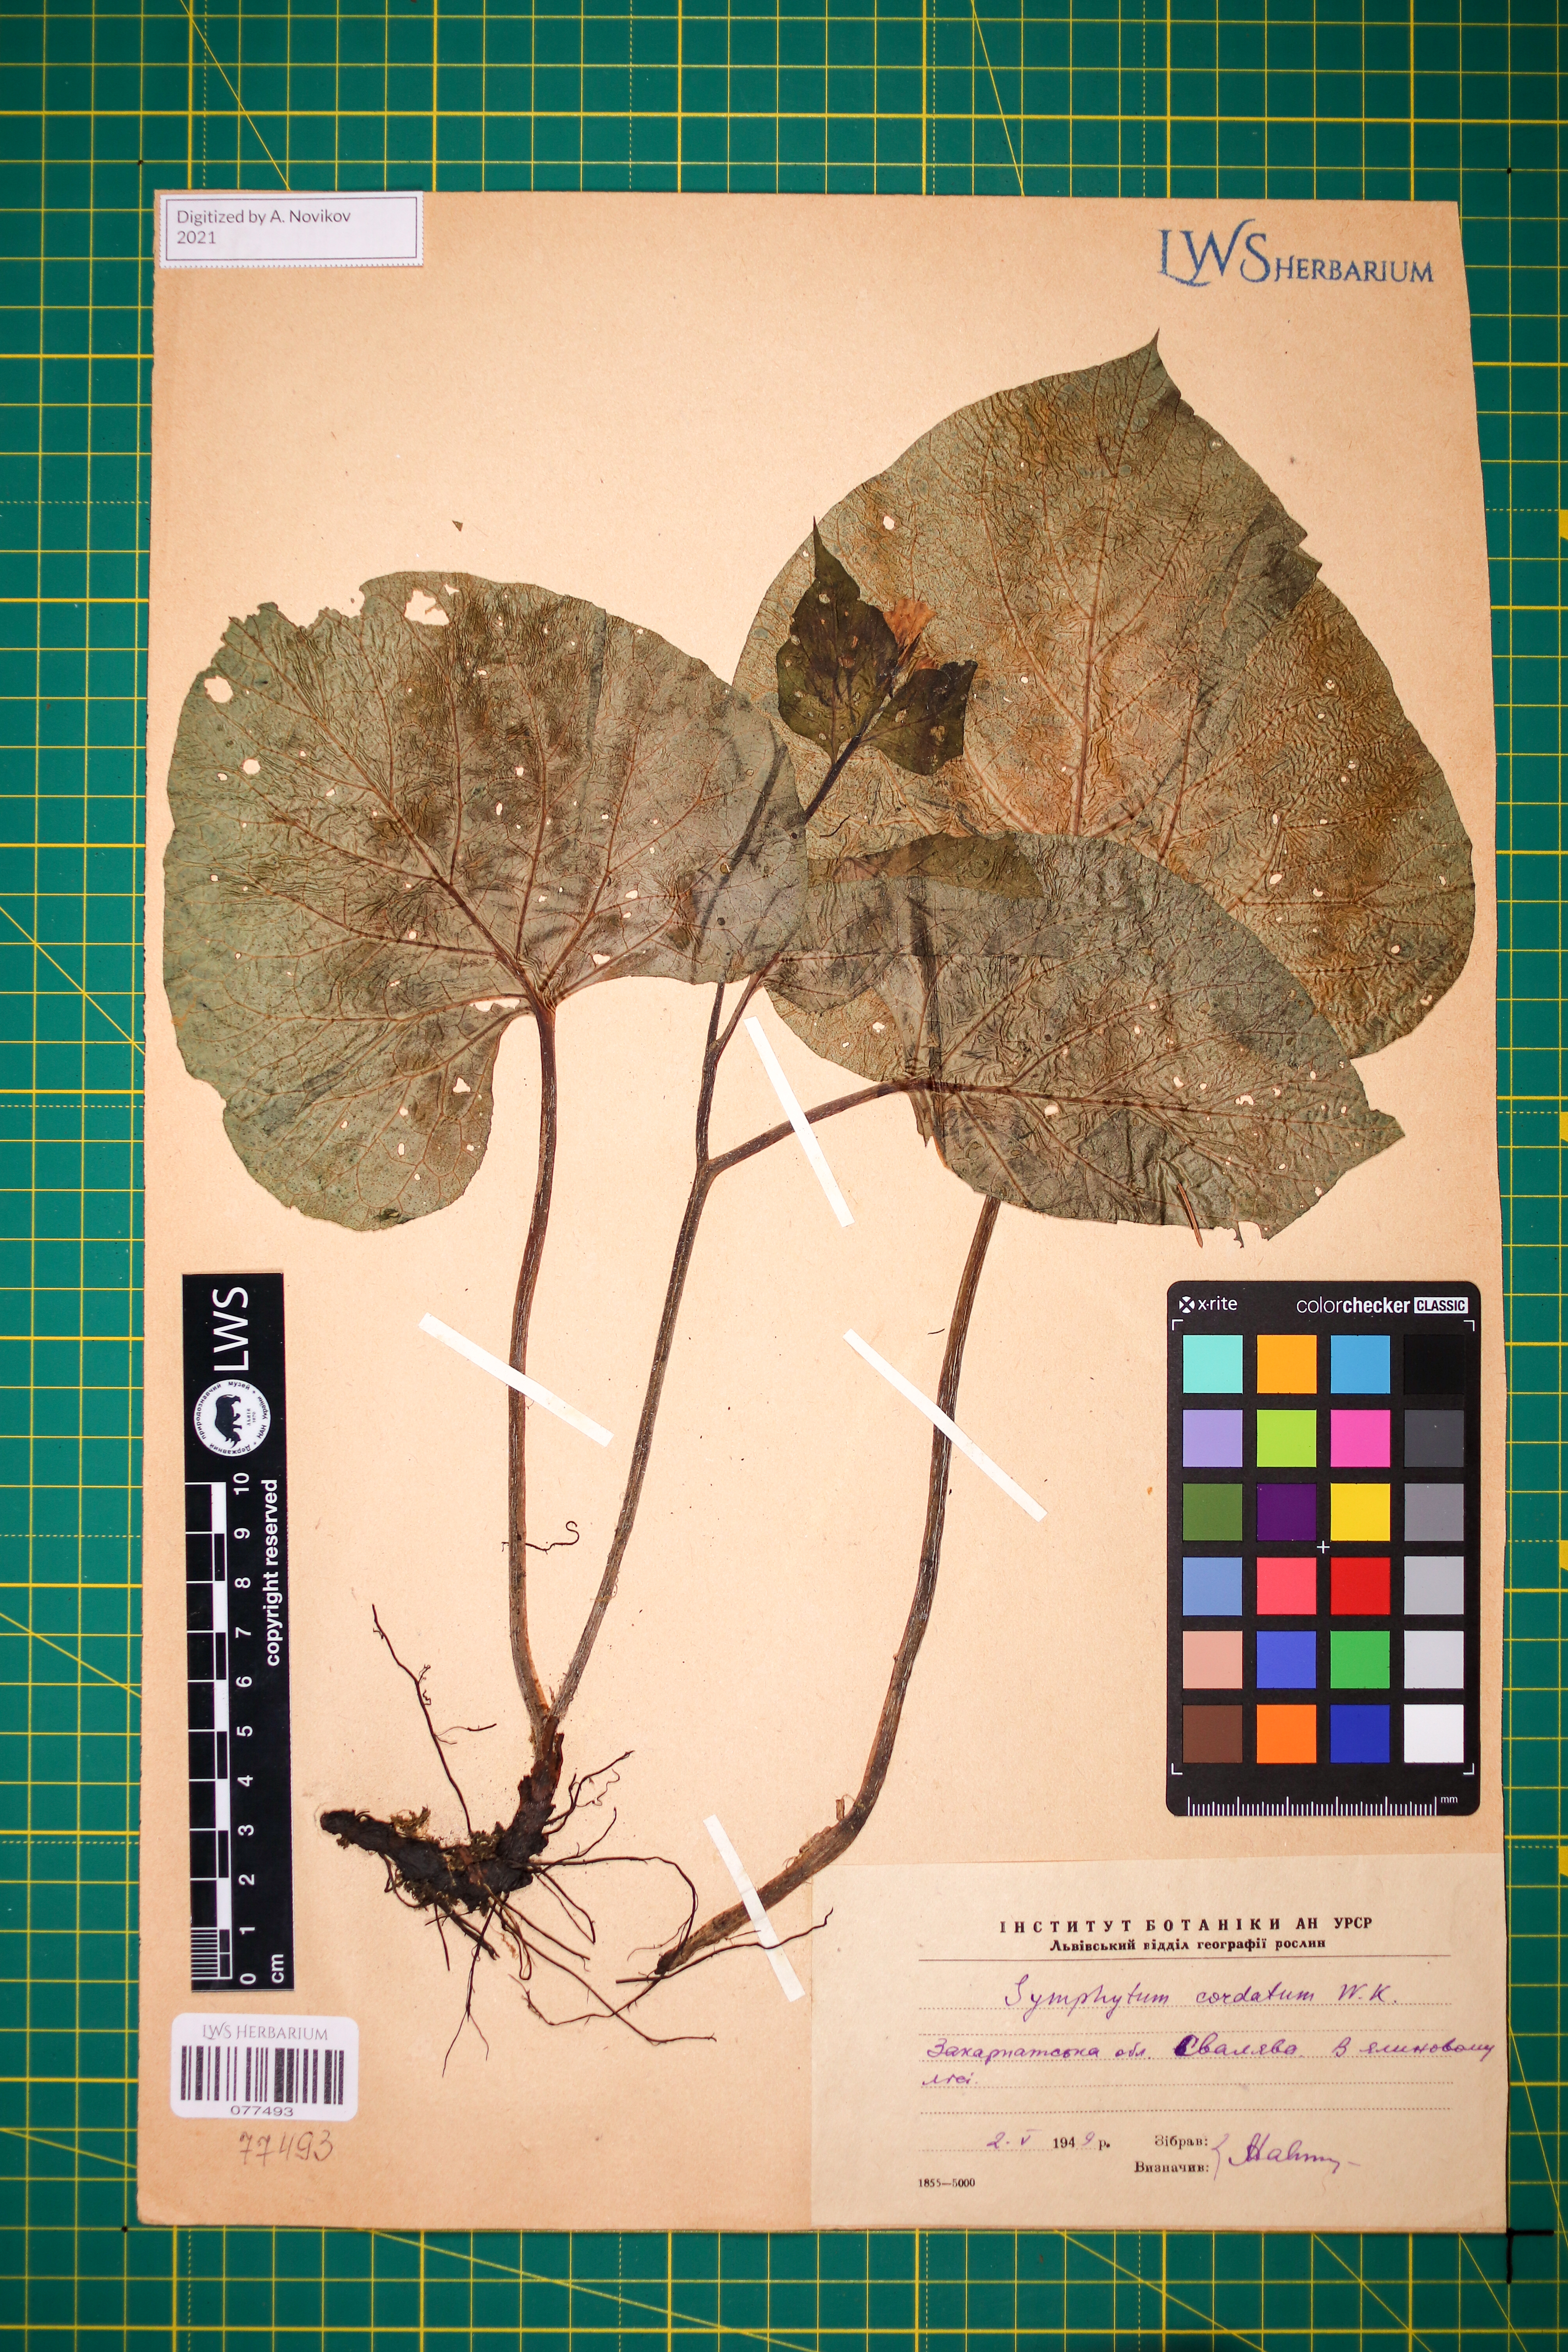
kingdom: Plantae
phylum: Tracheophyta
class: Magnoliopsida
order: Boraginales
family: Boraginaceae
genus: Symphytum
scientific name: Symphytum cordatum
